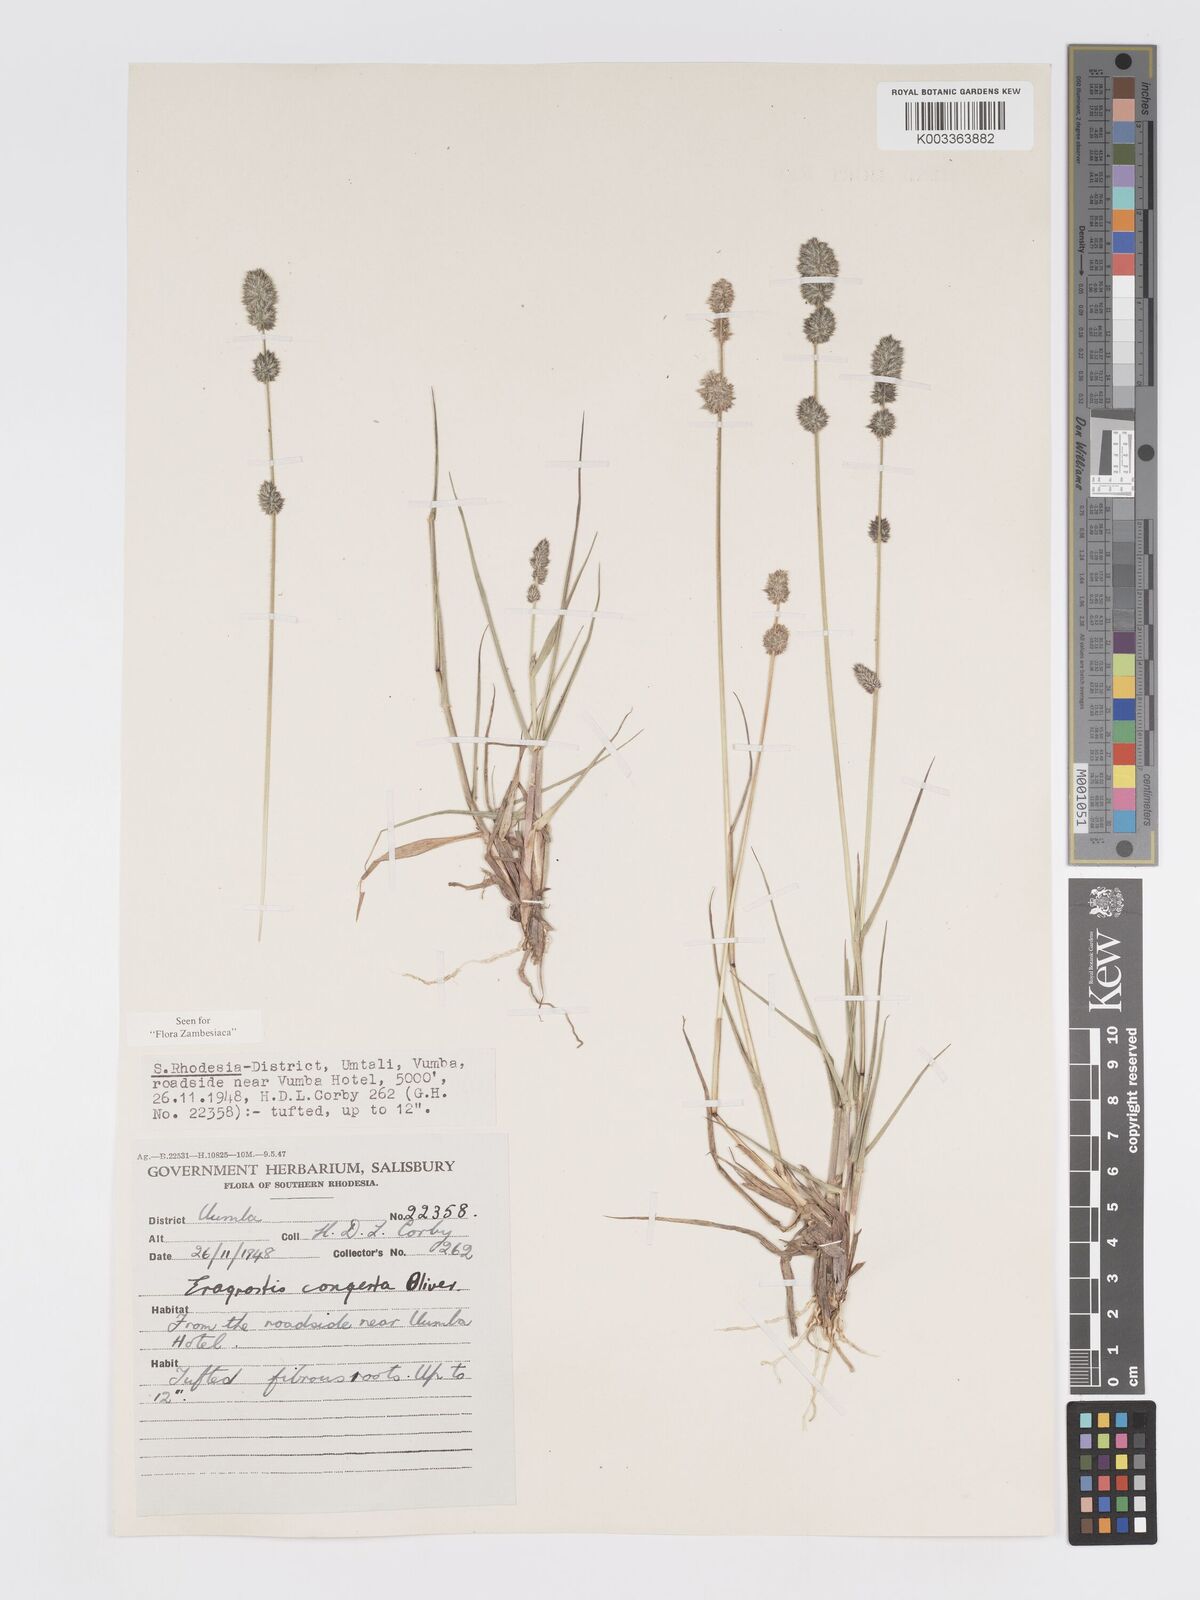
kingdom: Plantae
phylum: Tracheophyta
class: Liliopsida
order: Poales
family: Poaceae
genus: Eragrostis
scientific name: Eragrostis congesta
